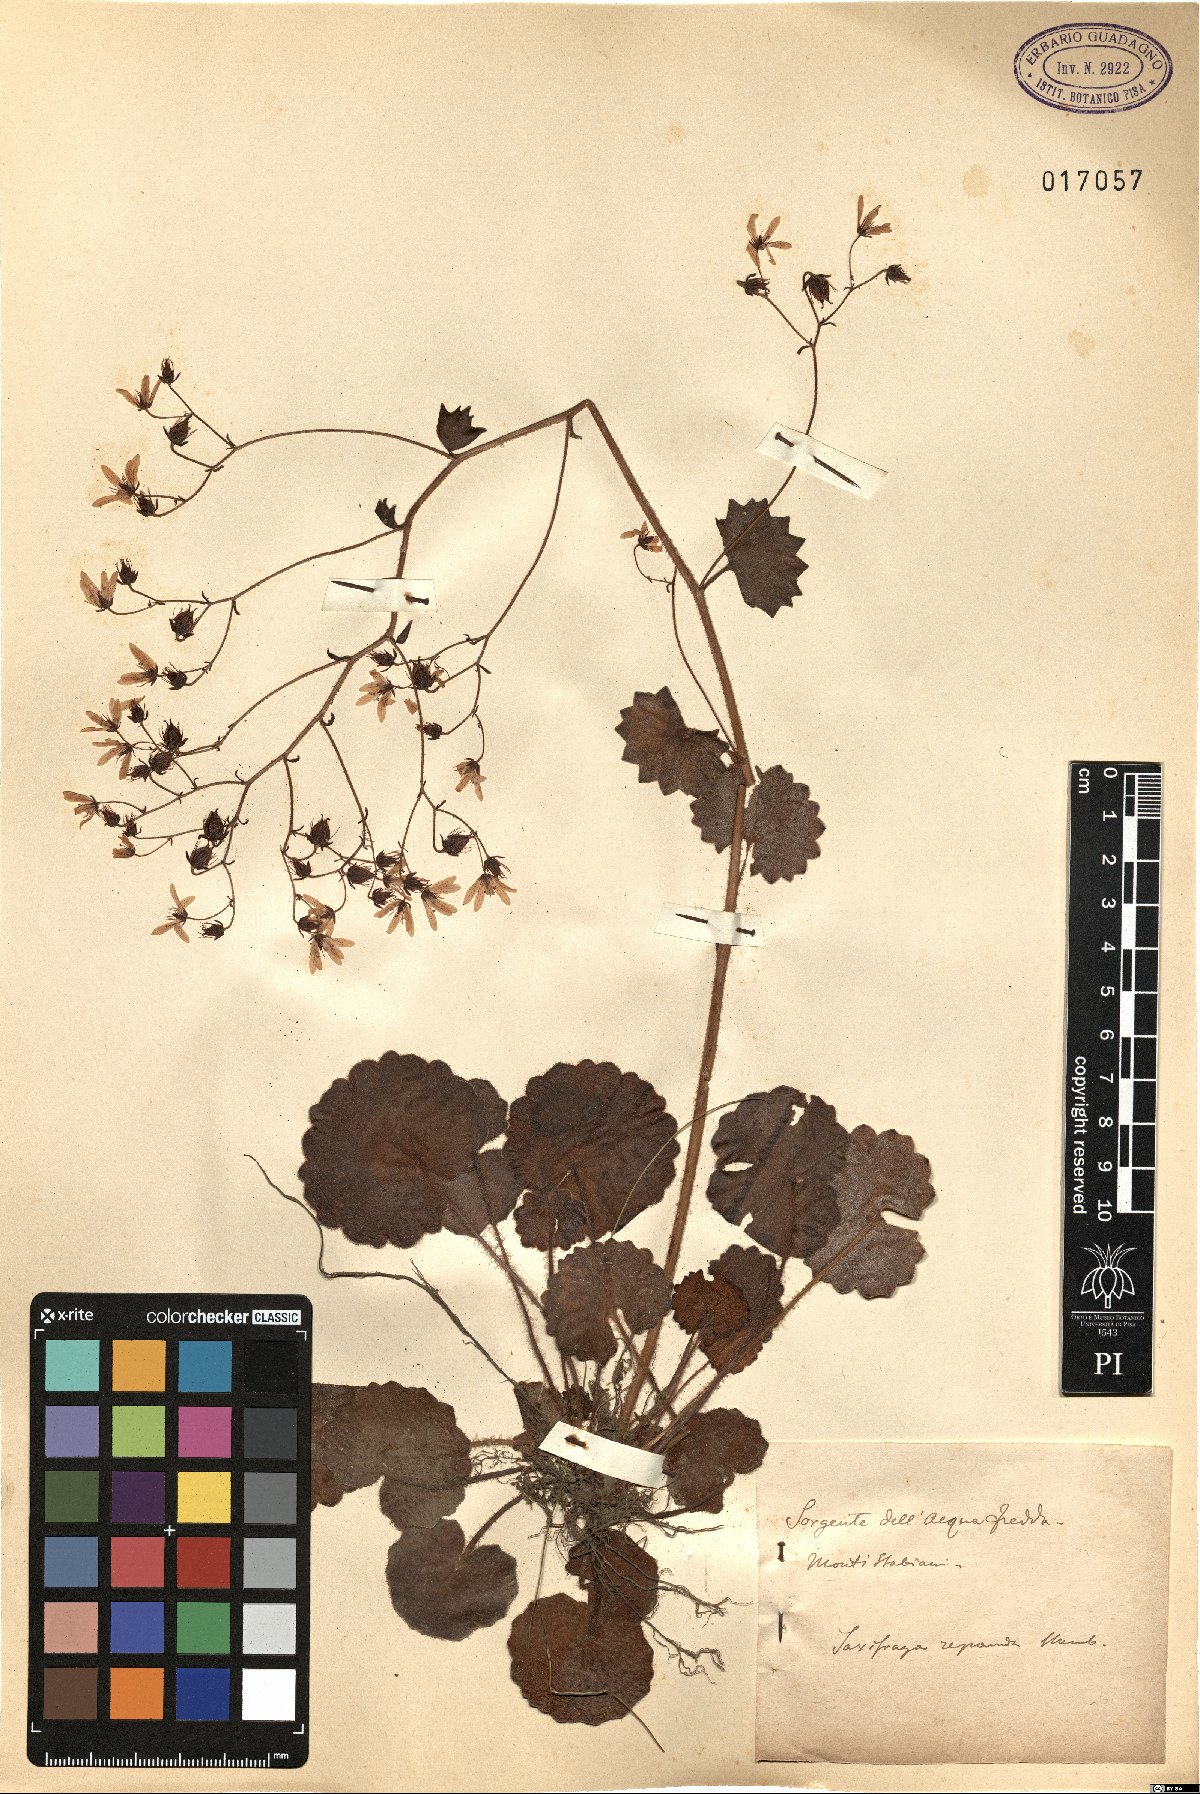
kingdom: Plantae
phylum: Tracheophyta
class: Magnoliopsida
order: Saxifragales
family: Saxifragaceae
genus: Saxifraga
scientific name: Saxifraga repanda
